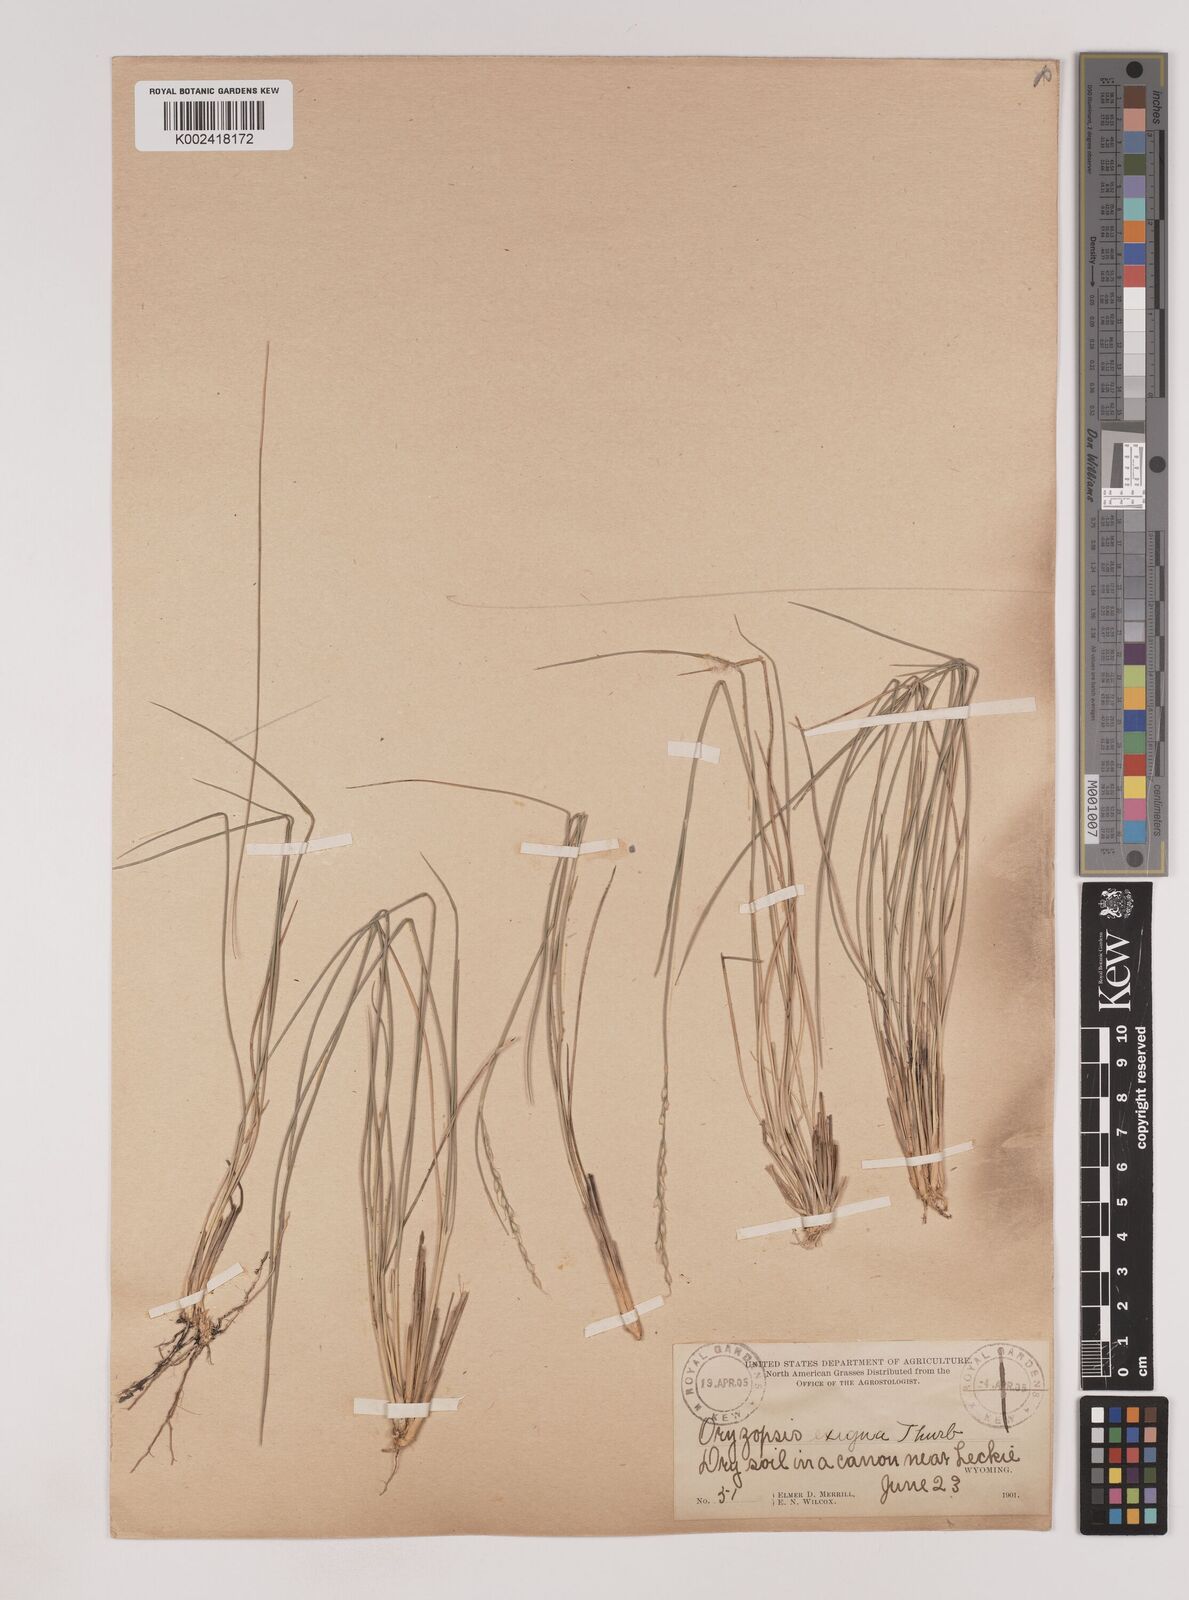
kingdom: Plantae
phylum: Tracheophyta
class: Liliopsida
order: Poales
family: Poaceae
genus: Piptatheropsis
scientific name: Piptatheropsis exigua
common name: Little mountain ricegrass
